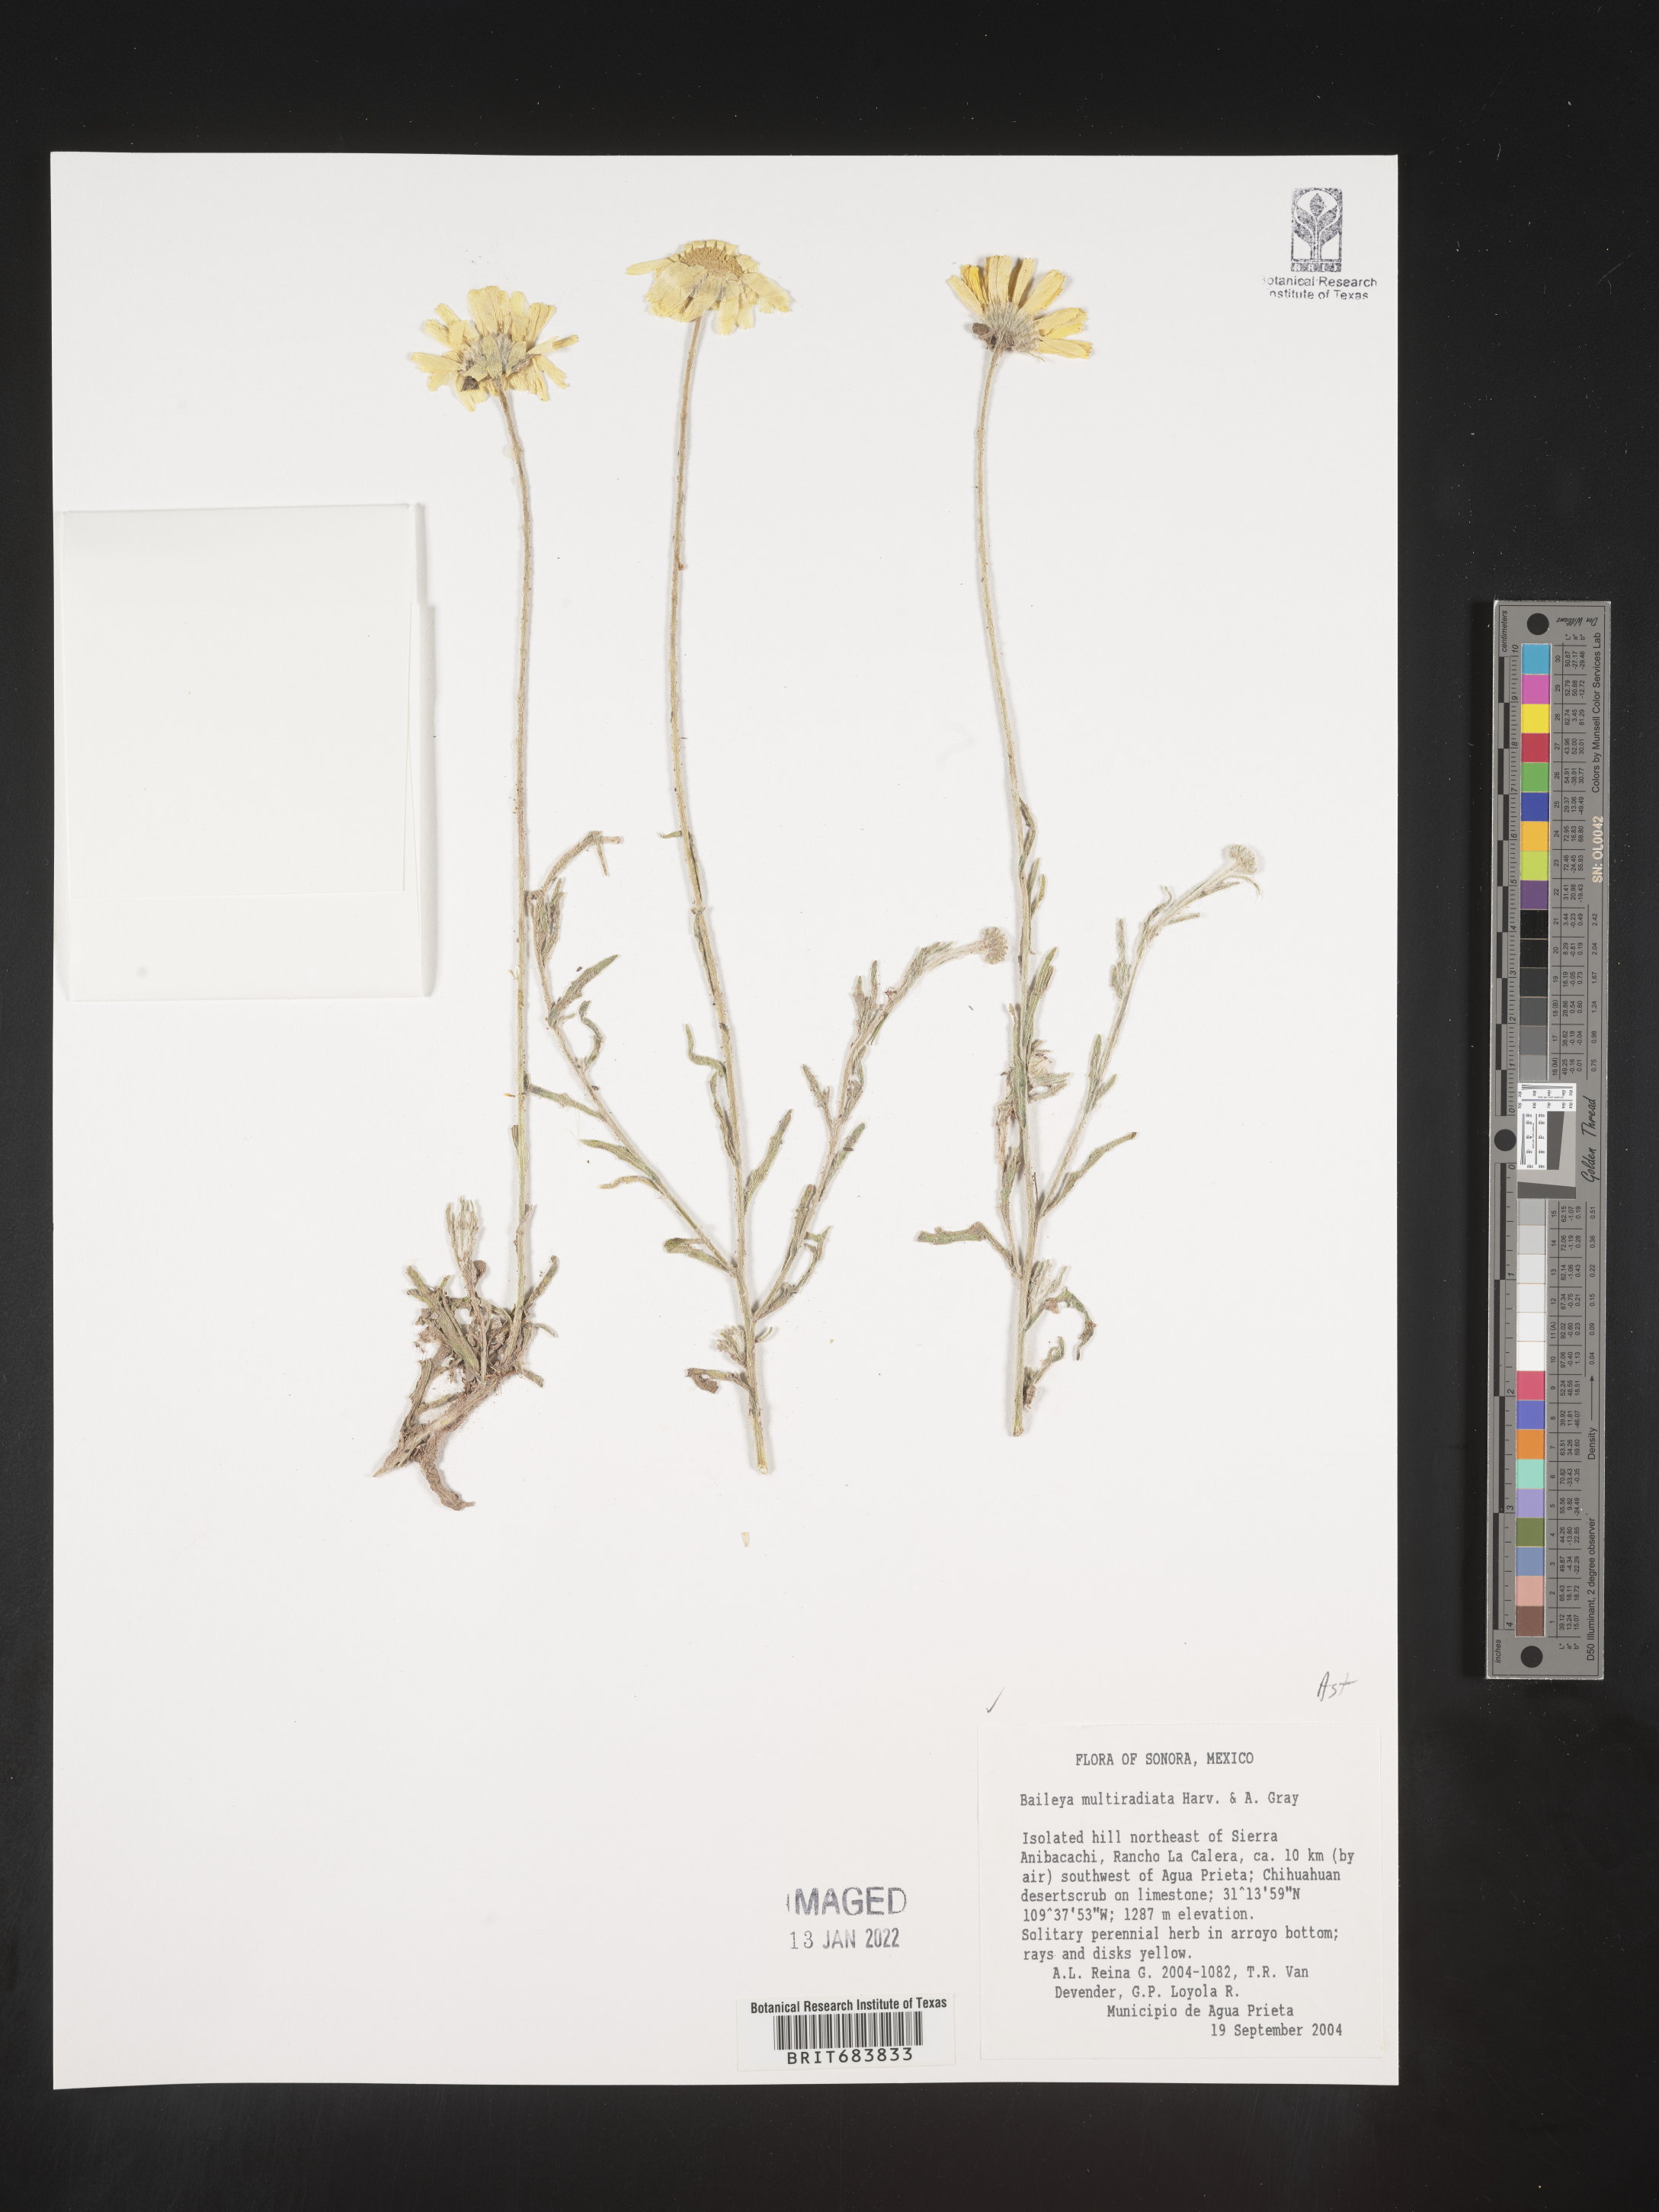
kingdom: Plantae
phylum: Tracheophyta
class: Magnoliopsida
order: Asterales
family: Asteraceae
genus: Baileya
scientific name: Baileya
